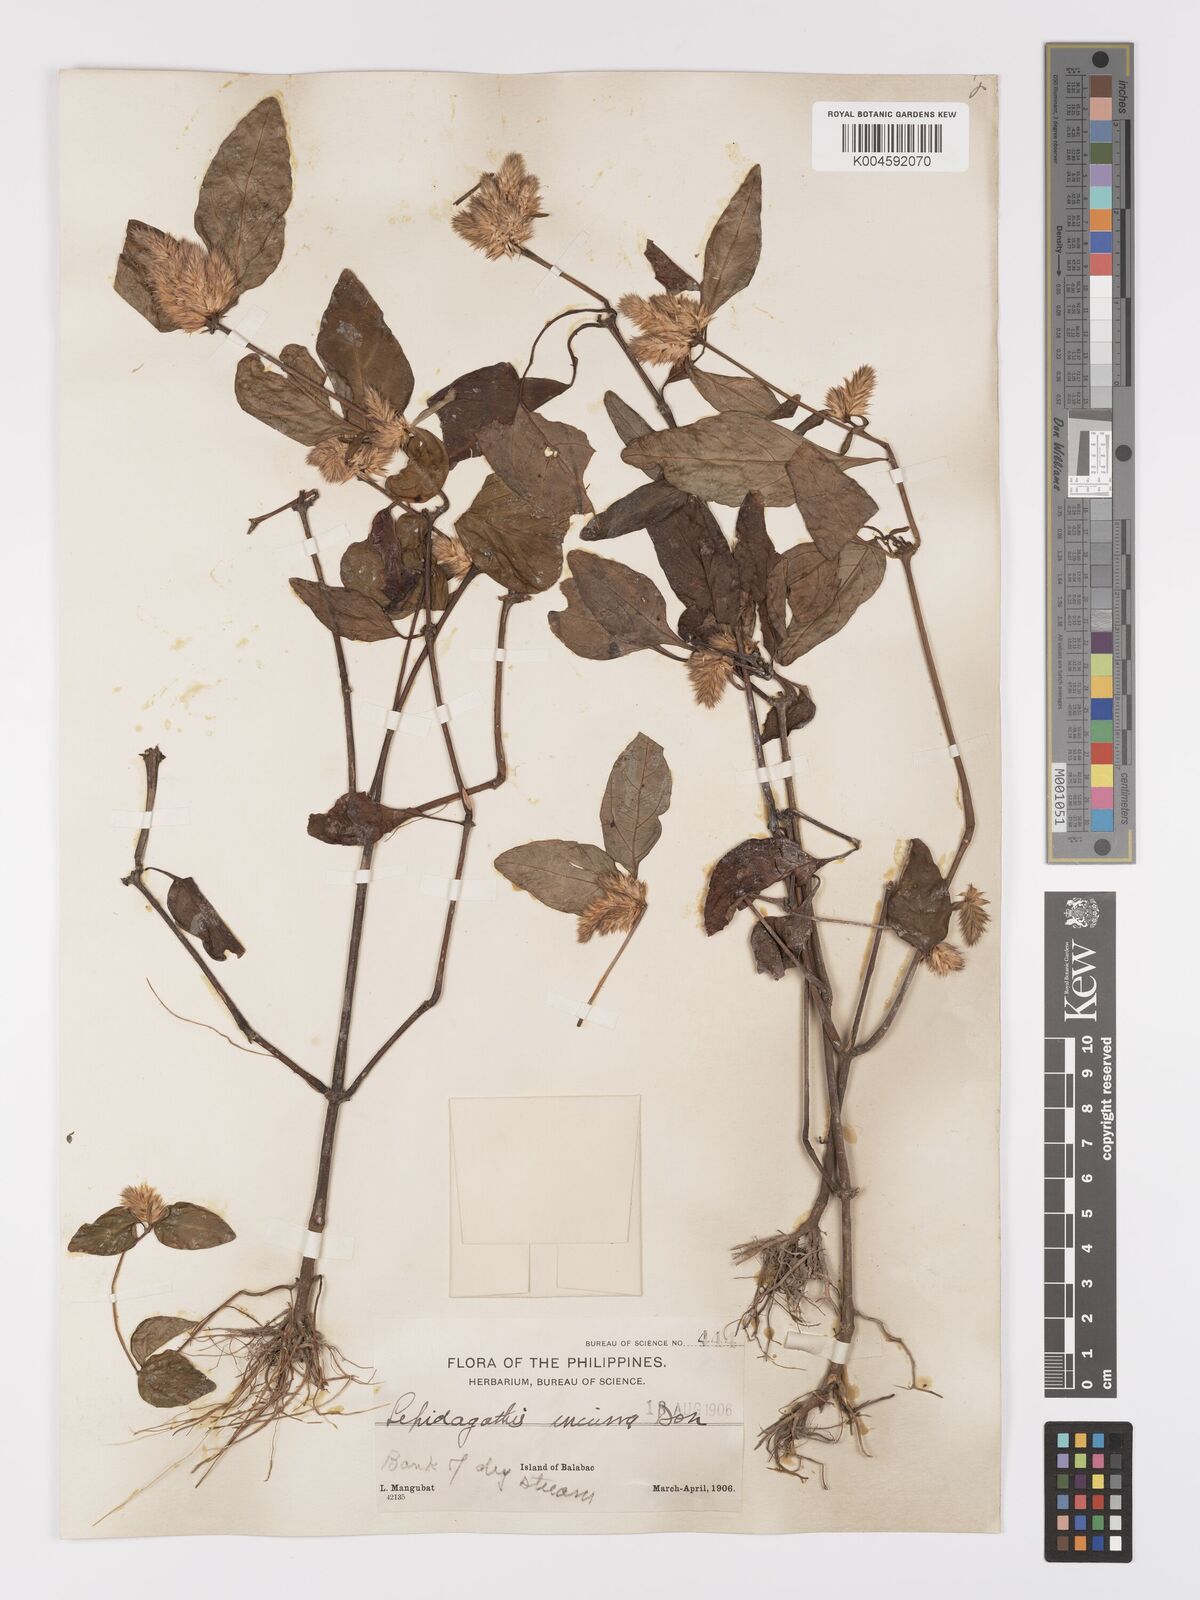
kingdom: Plantae
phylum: Tracheophyta
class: Magnoliopsida
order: Lamiales
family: Acanthaceae
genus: Lepidagathis
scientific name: Lepidagathis incurva
